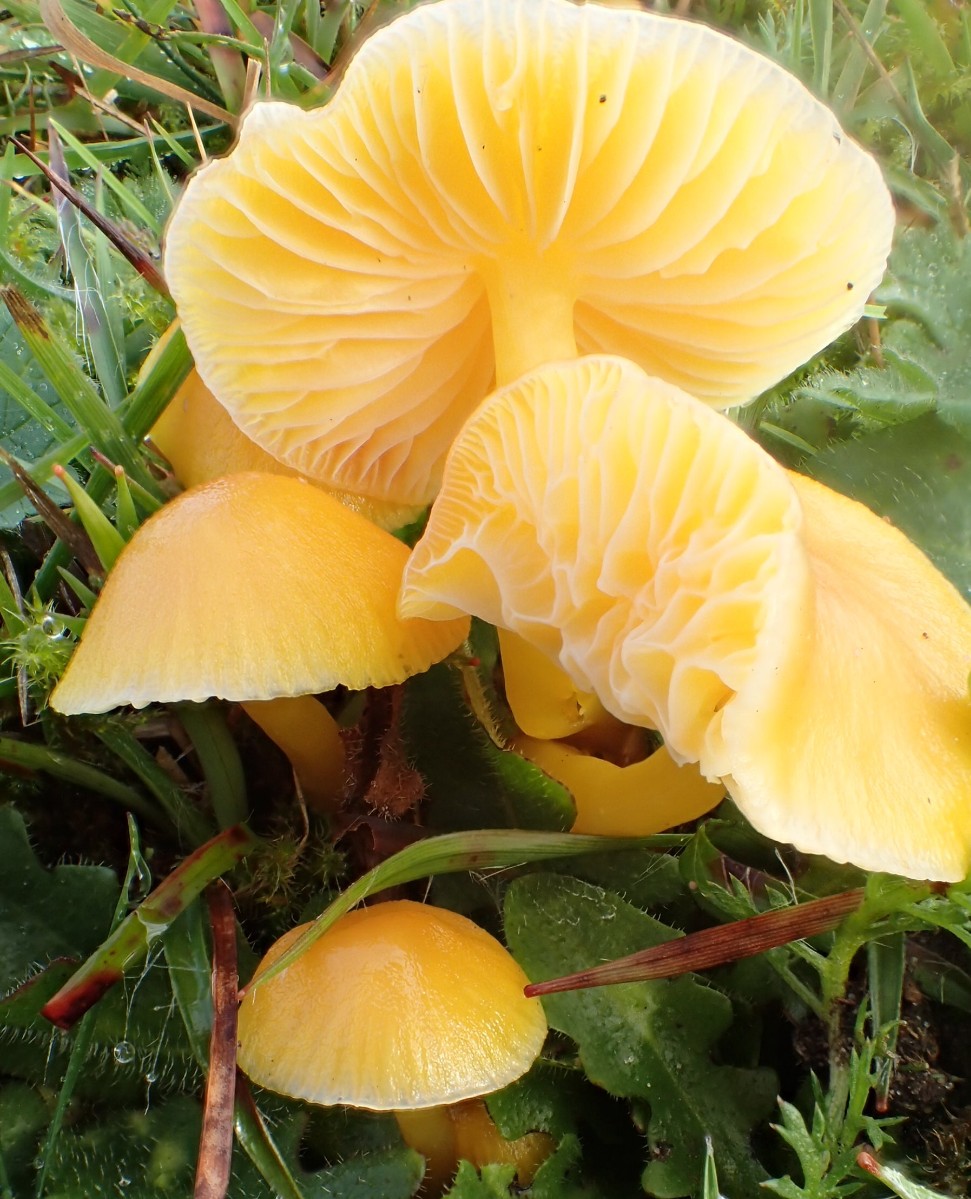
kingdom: Fungi
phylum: Basidiomycota
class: Agaricomycetes
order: Agaricales
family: Hygrophoraceae
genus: Hygrocybe
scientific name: Hygrocybe chlorophana
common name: gul vokshat
